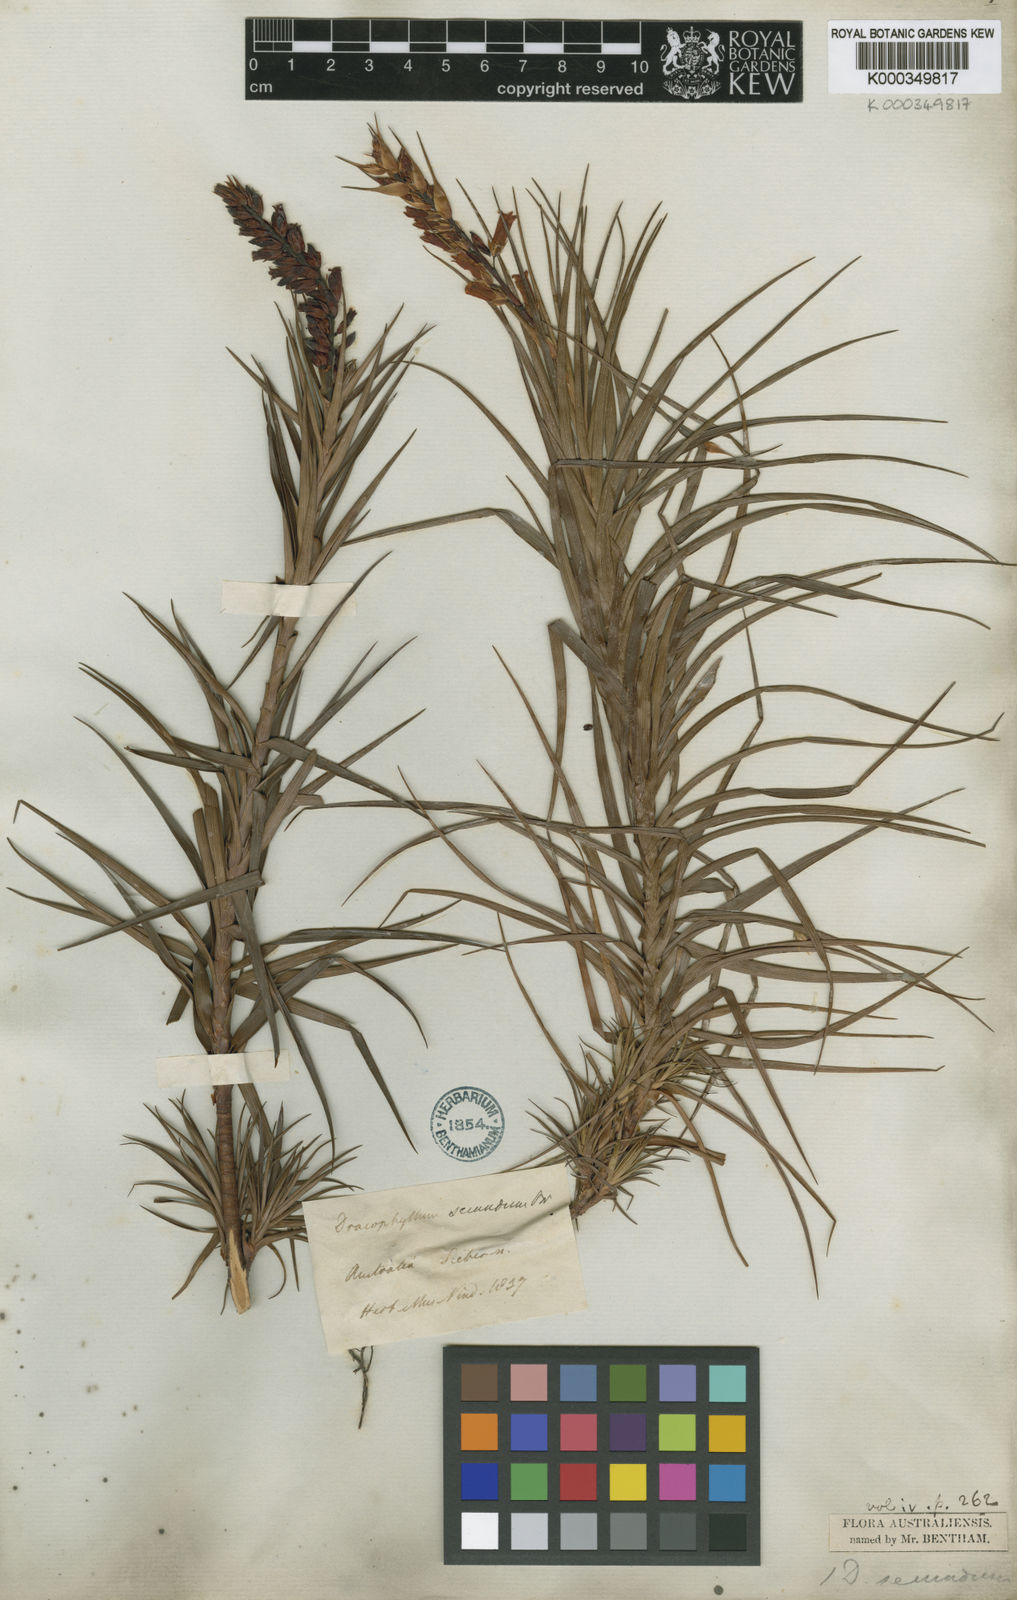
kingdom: Plantae
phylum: Tracheophyta
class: Magnoliopsida
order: Ericales
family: Ericaceae
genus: Dracophyllum
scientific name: Dracophyllum secundum
